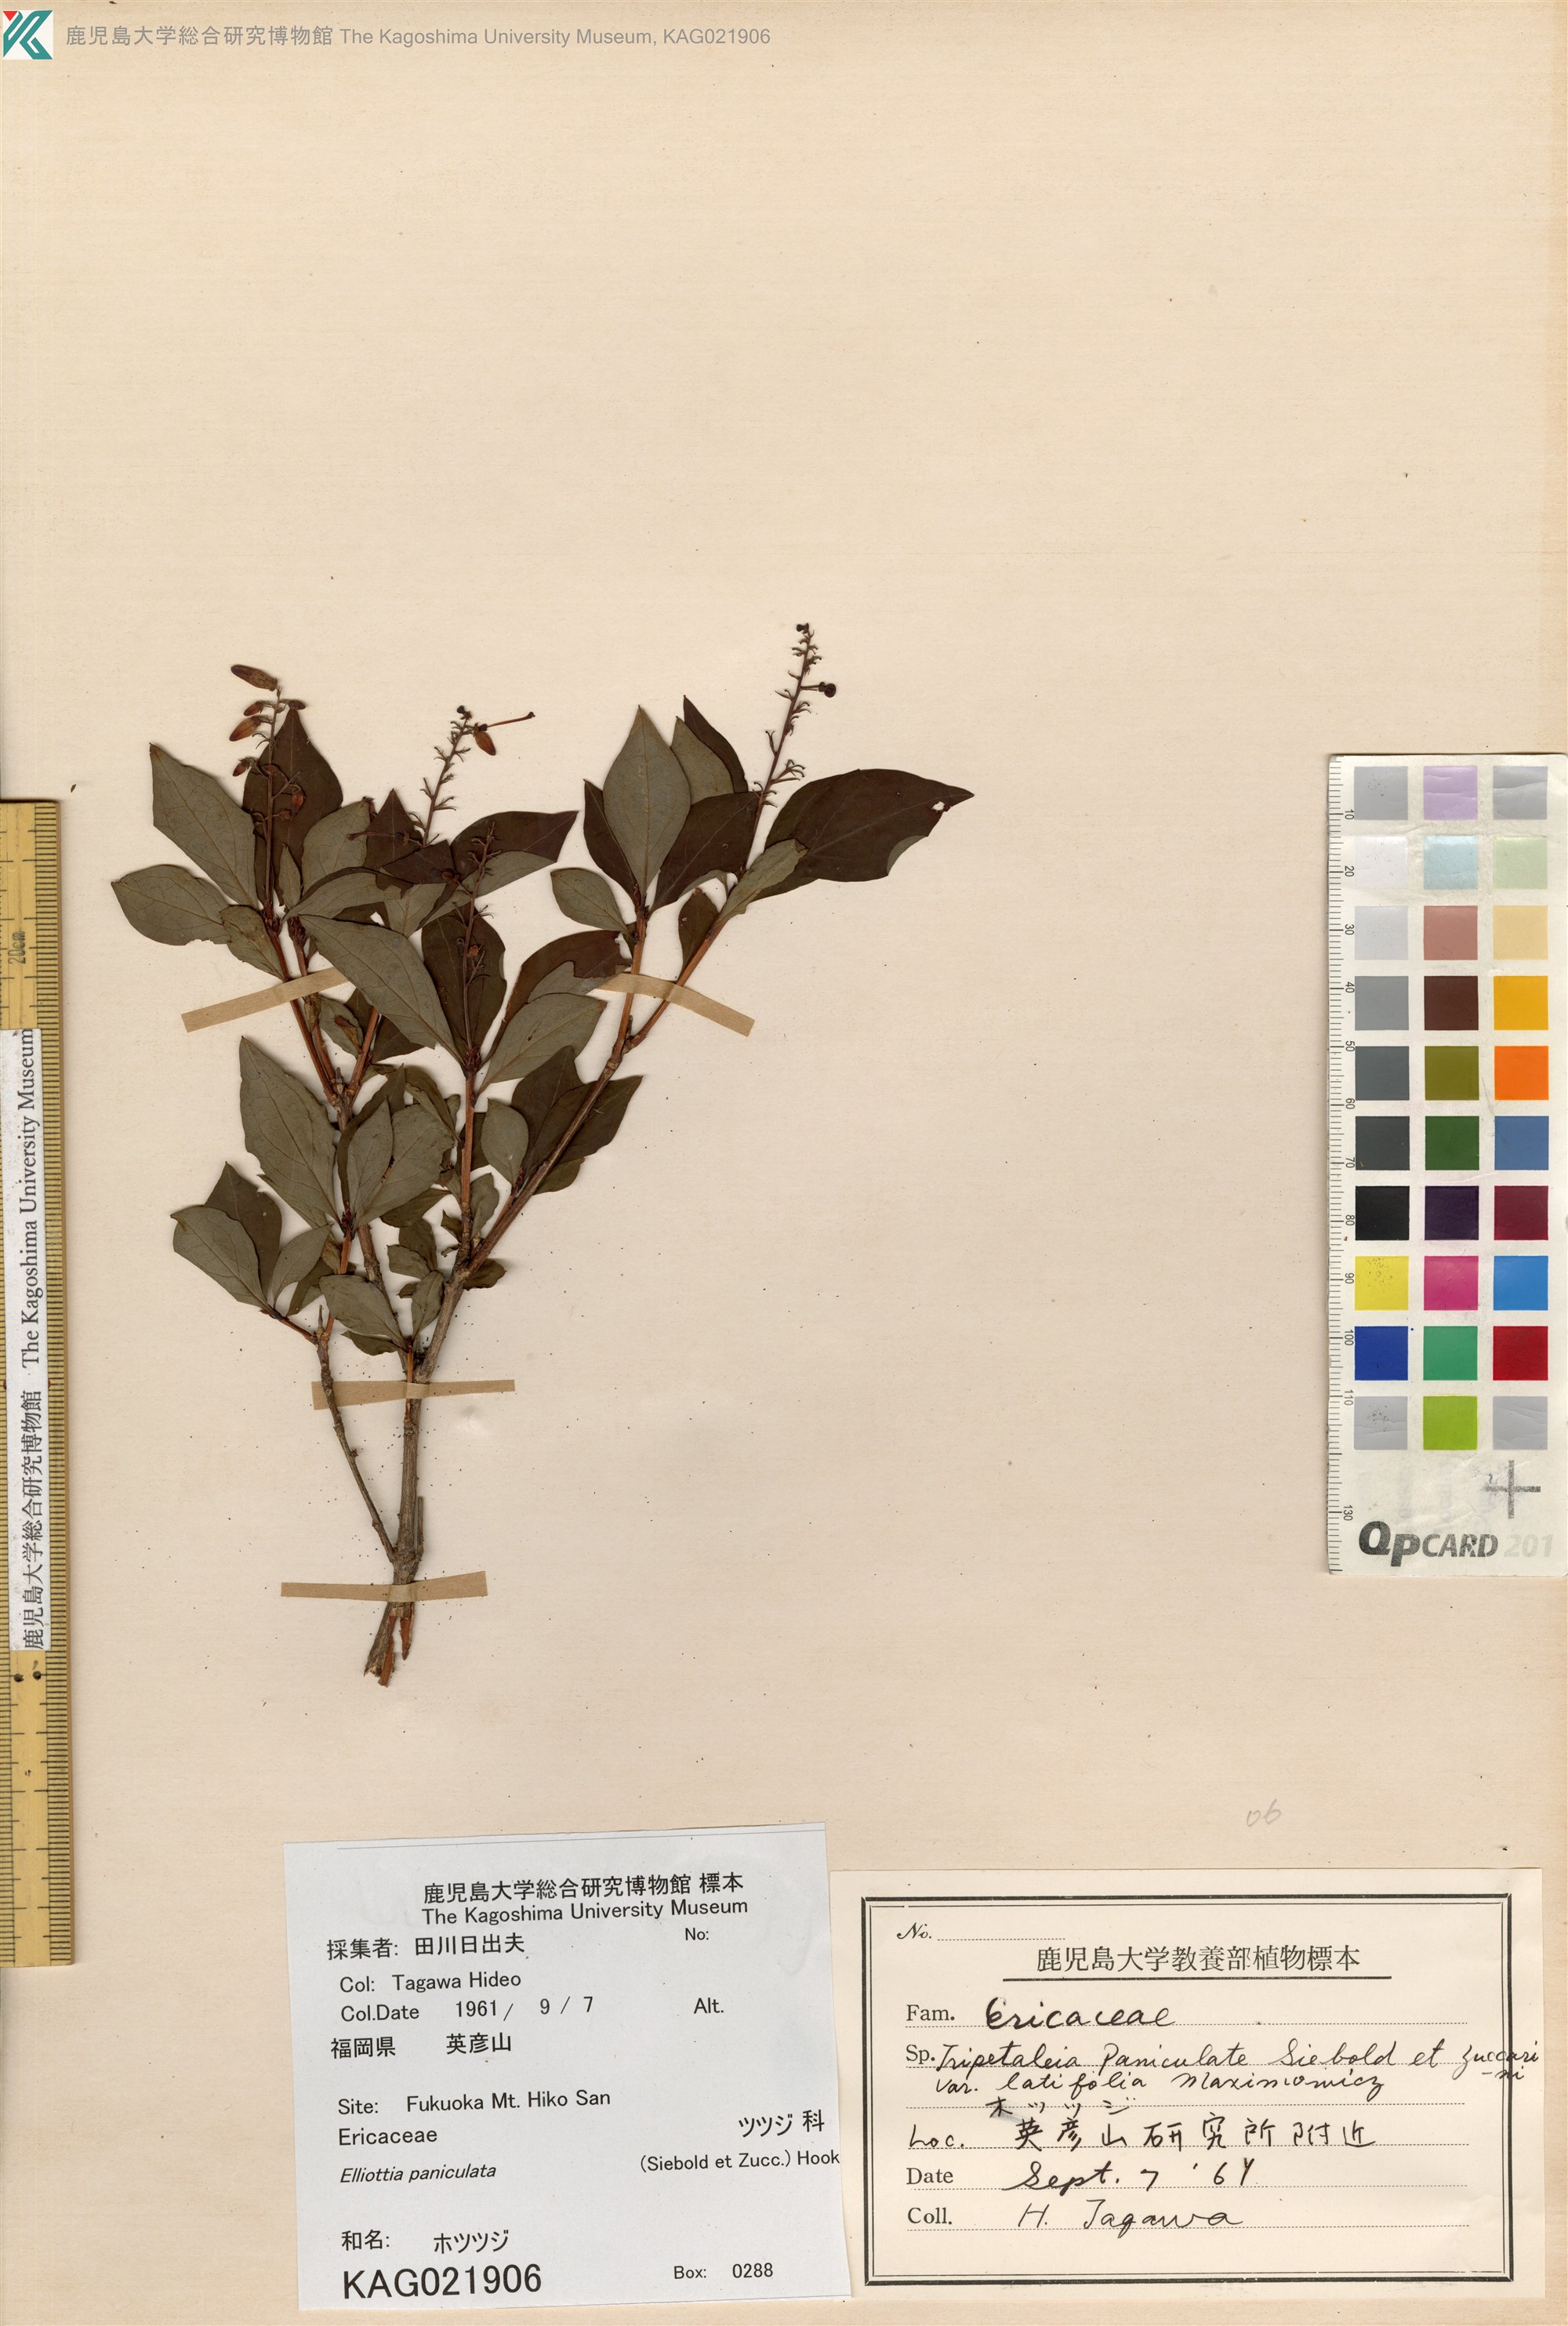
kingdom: Plantae
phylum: Tracheophyta
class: Magnoliopsida
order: Ericales
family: Ericaceae
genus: Elliottia
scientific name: Elliottia paniculata
